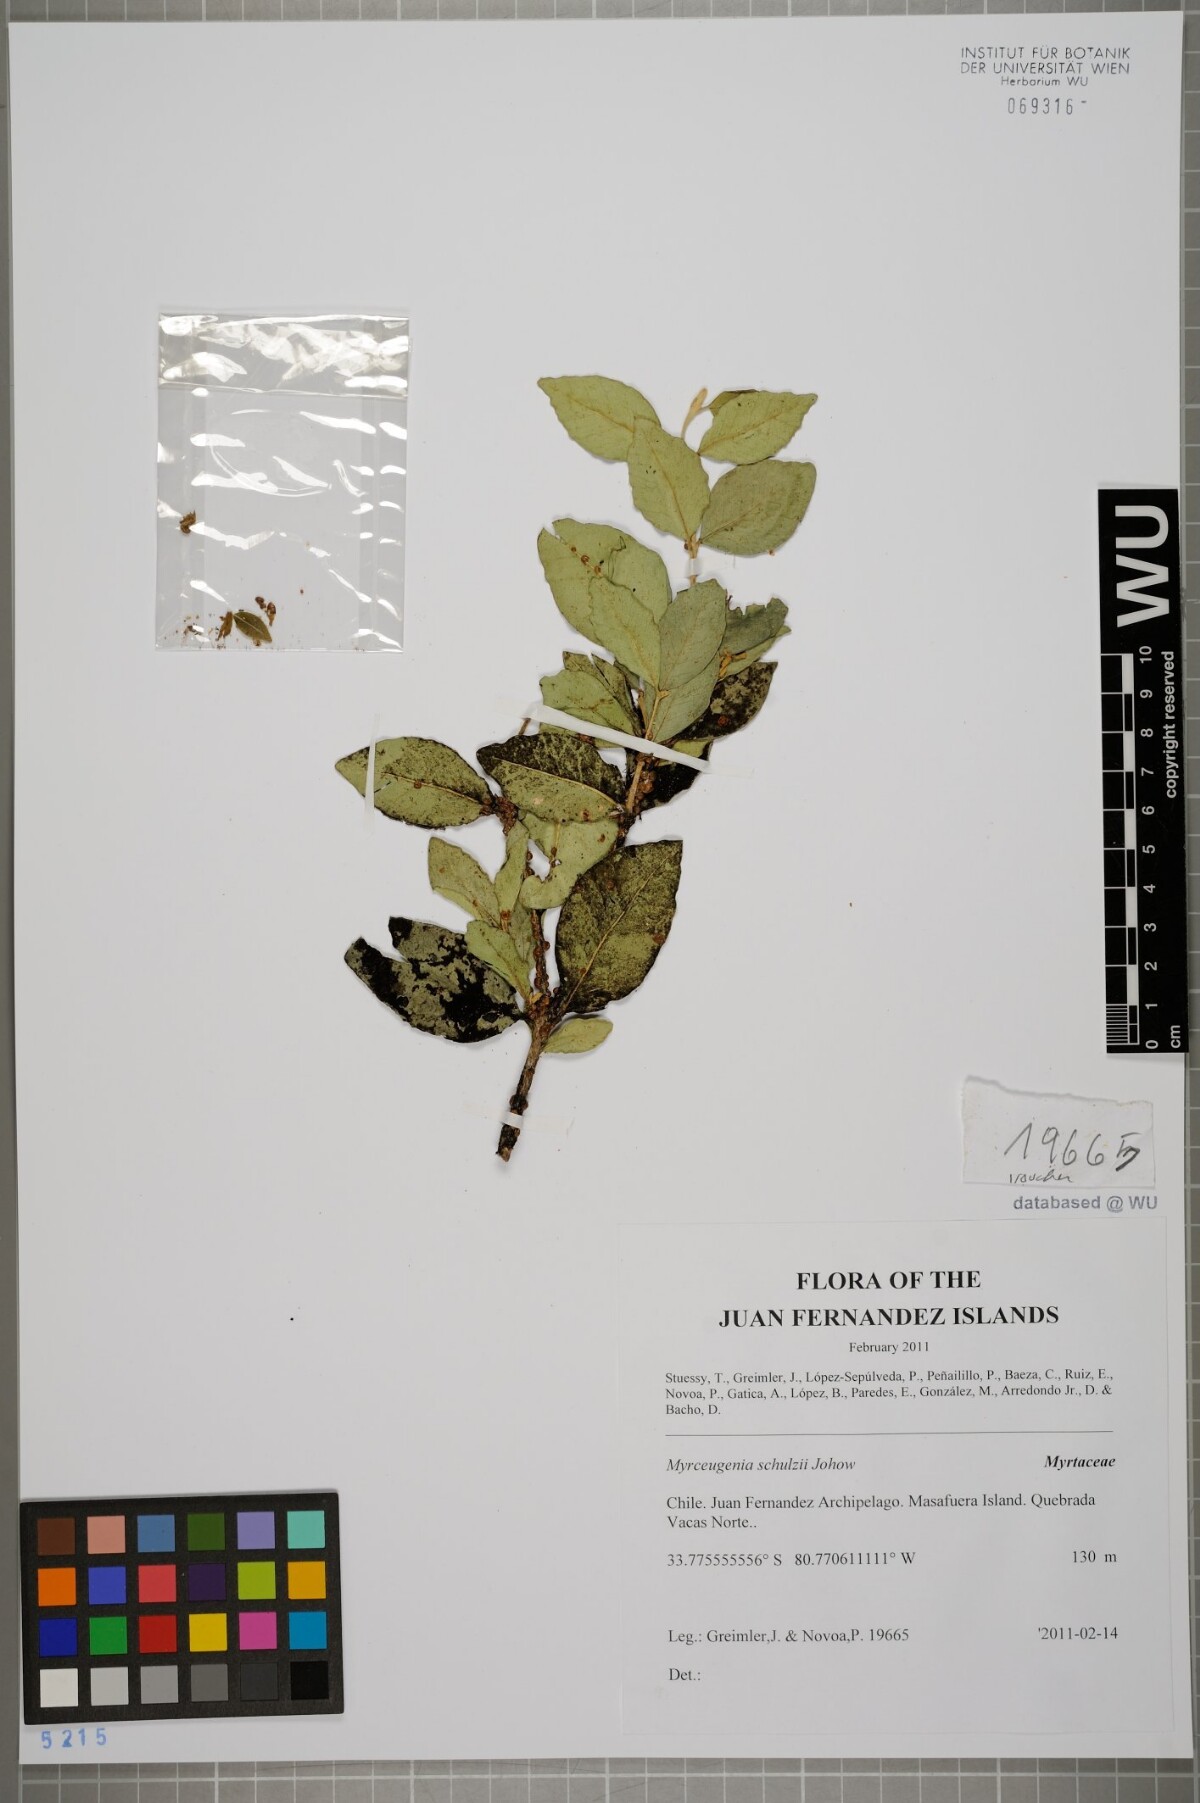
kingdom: Plantae
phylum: Tracheophyta
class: Magnoliopsida
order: Myrtales
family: Myrtaceae
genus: Myrceugenia
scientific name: Myrceugenia schulzei
